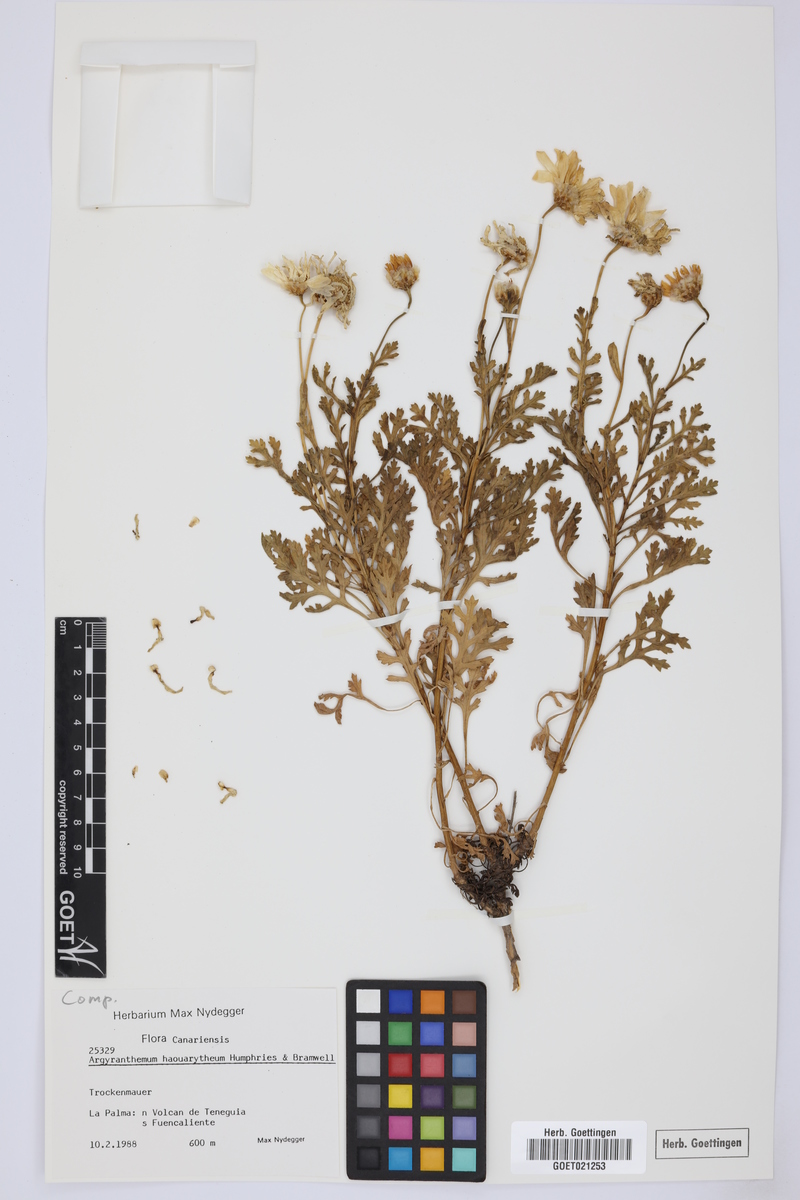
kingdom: Plantae
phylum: Tracheophyta
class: Magnoliopsida
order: Asterales
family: Asteraceae
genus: Argyranthemum
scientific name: Argyranthemum haouarytheum
